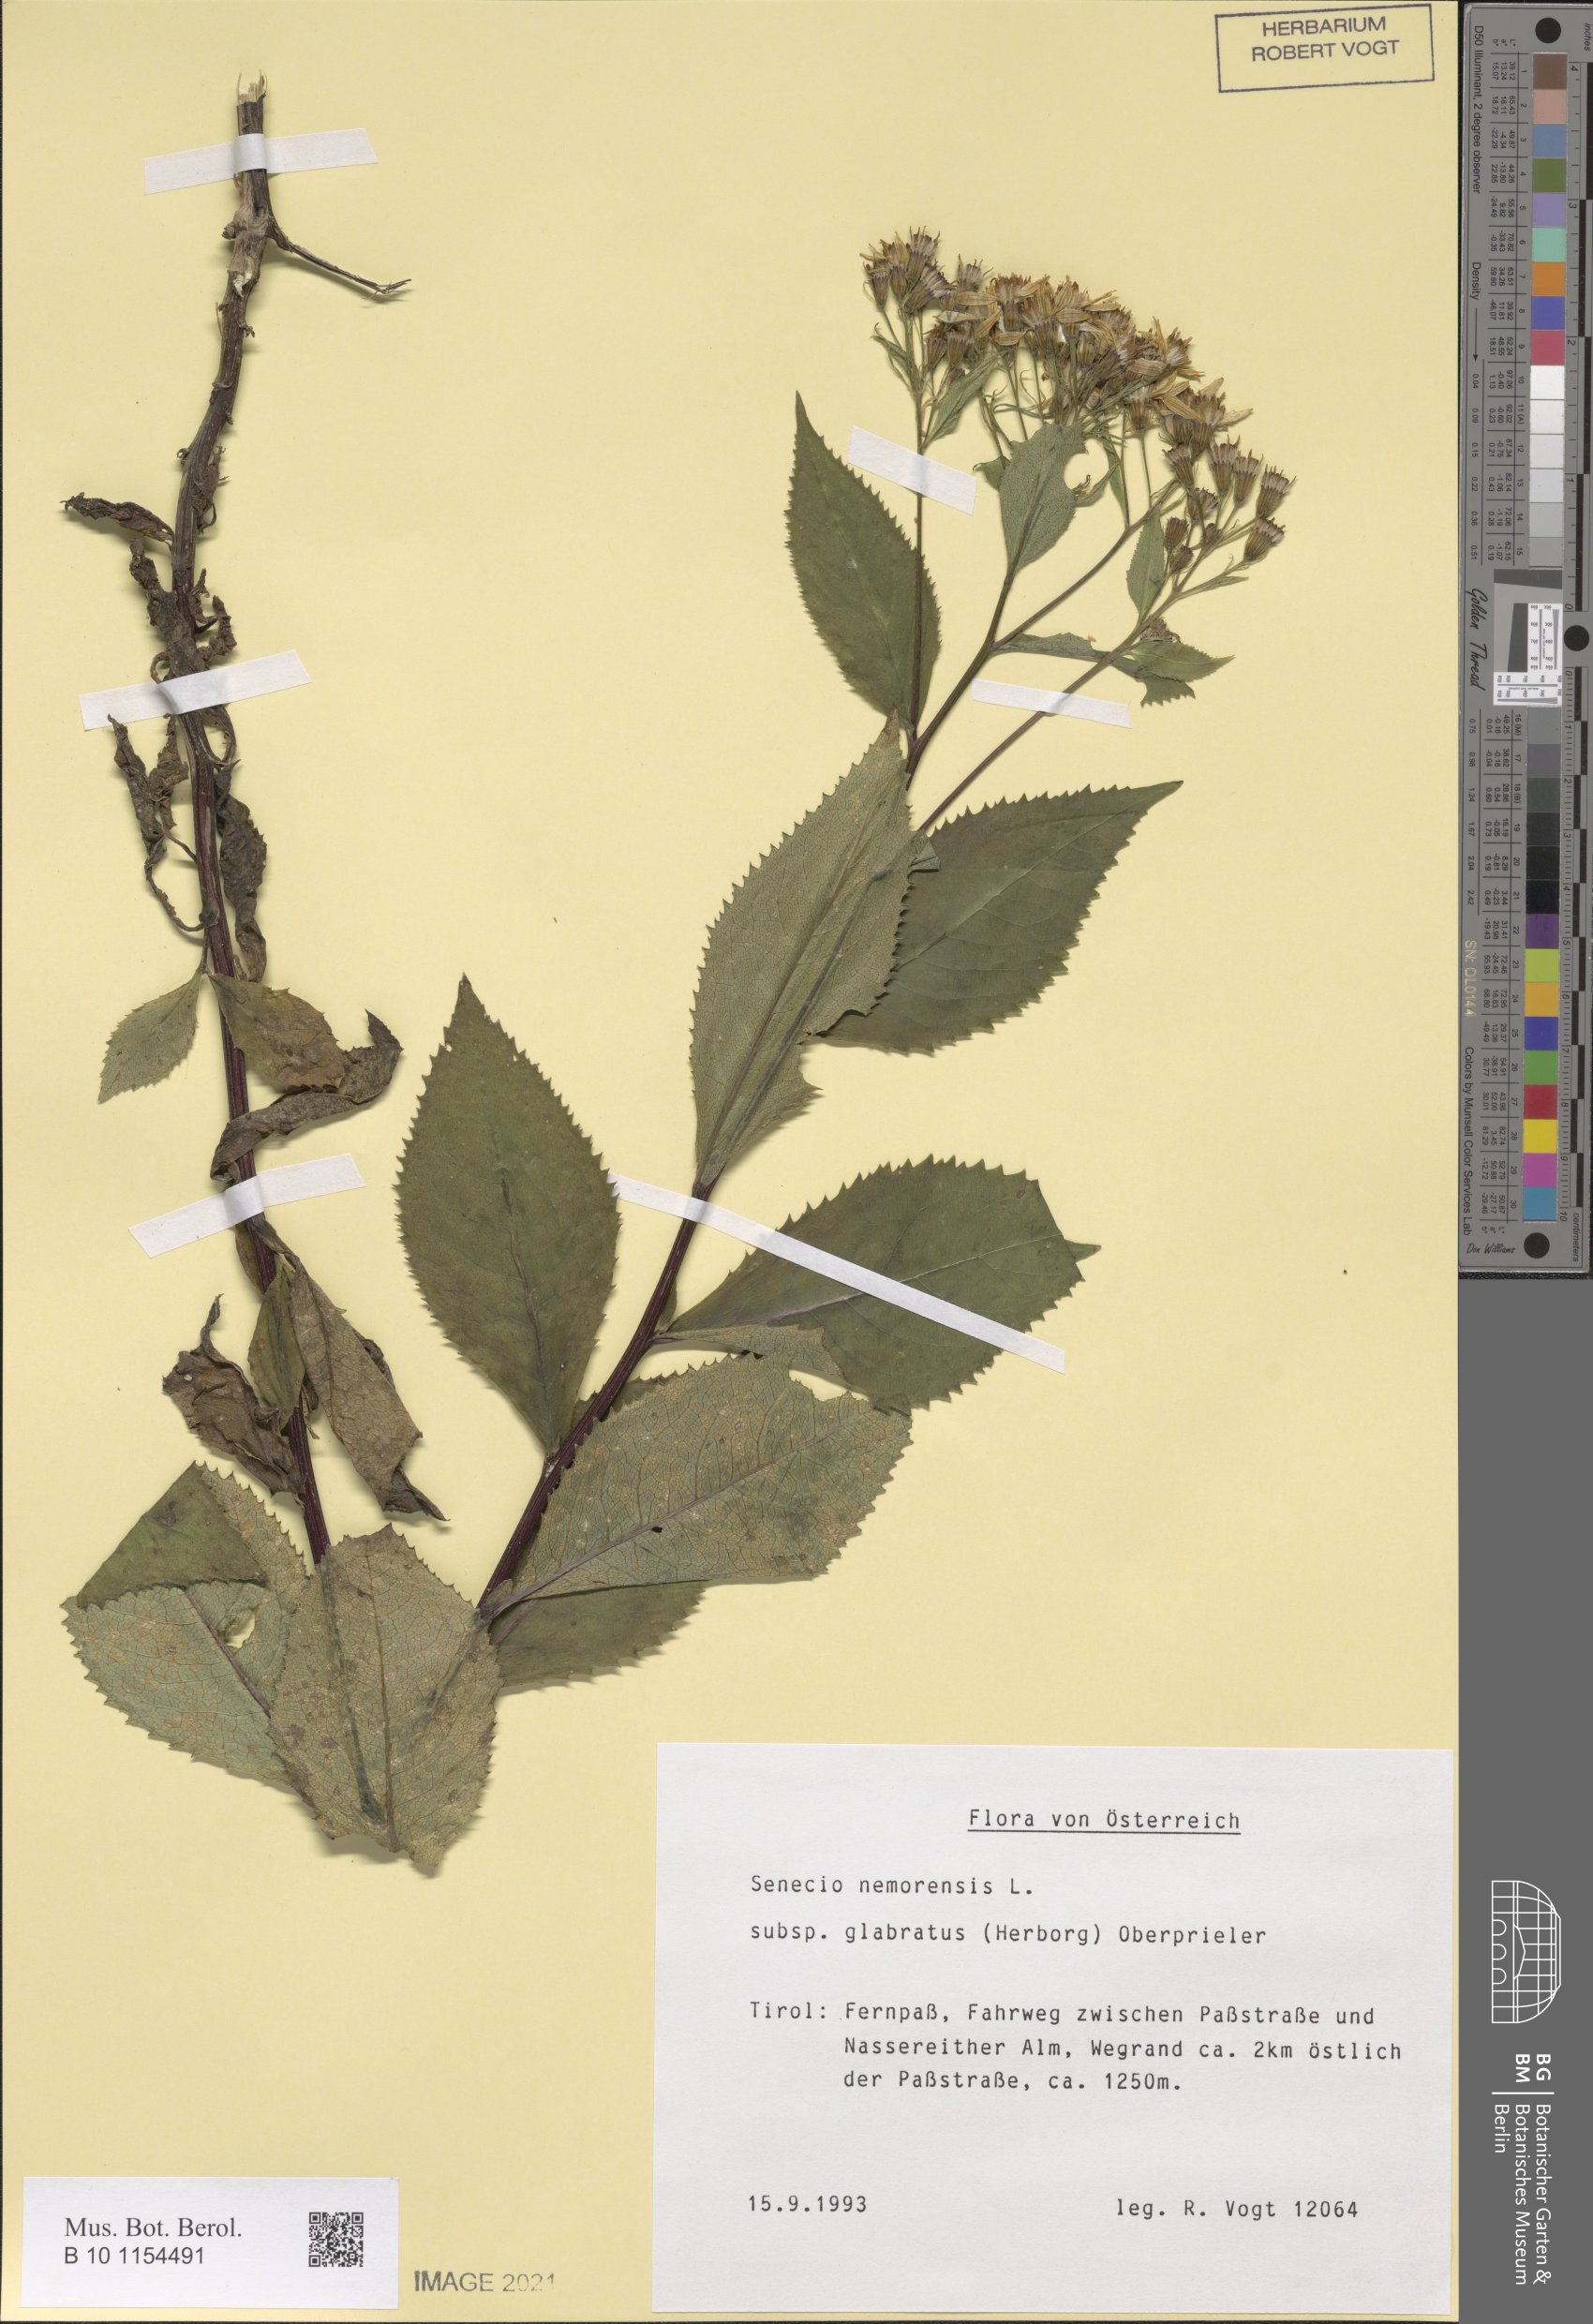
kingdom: Plantae
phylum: Tracheophyta
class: Magnoliopsida
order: Asterales
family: Asteraceae
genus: Senecio
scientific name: Senecio germanicus
